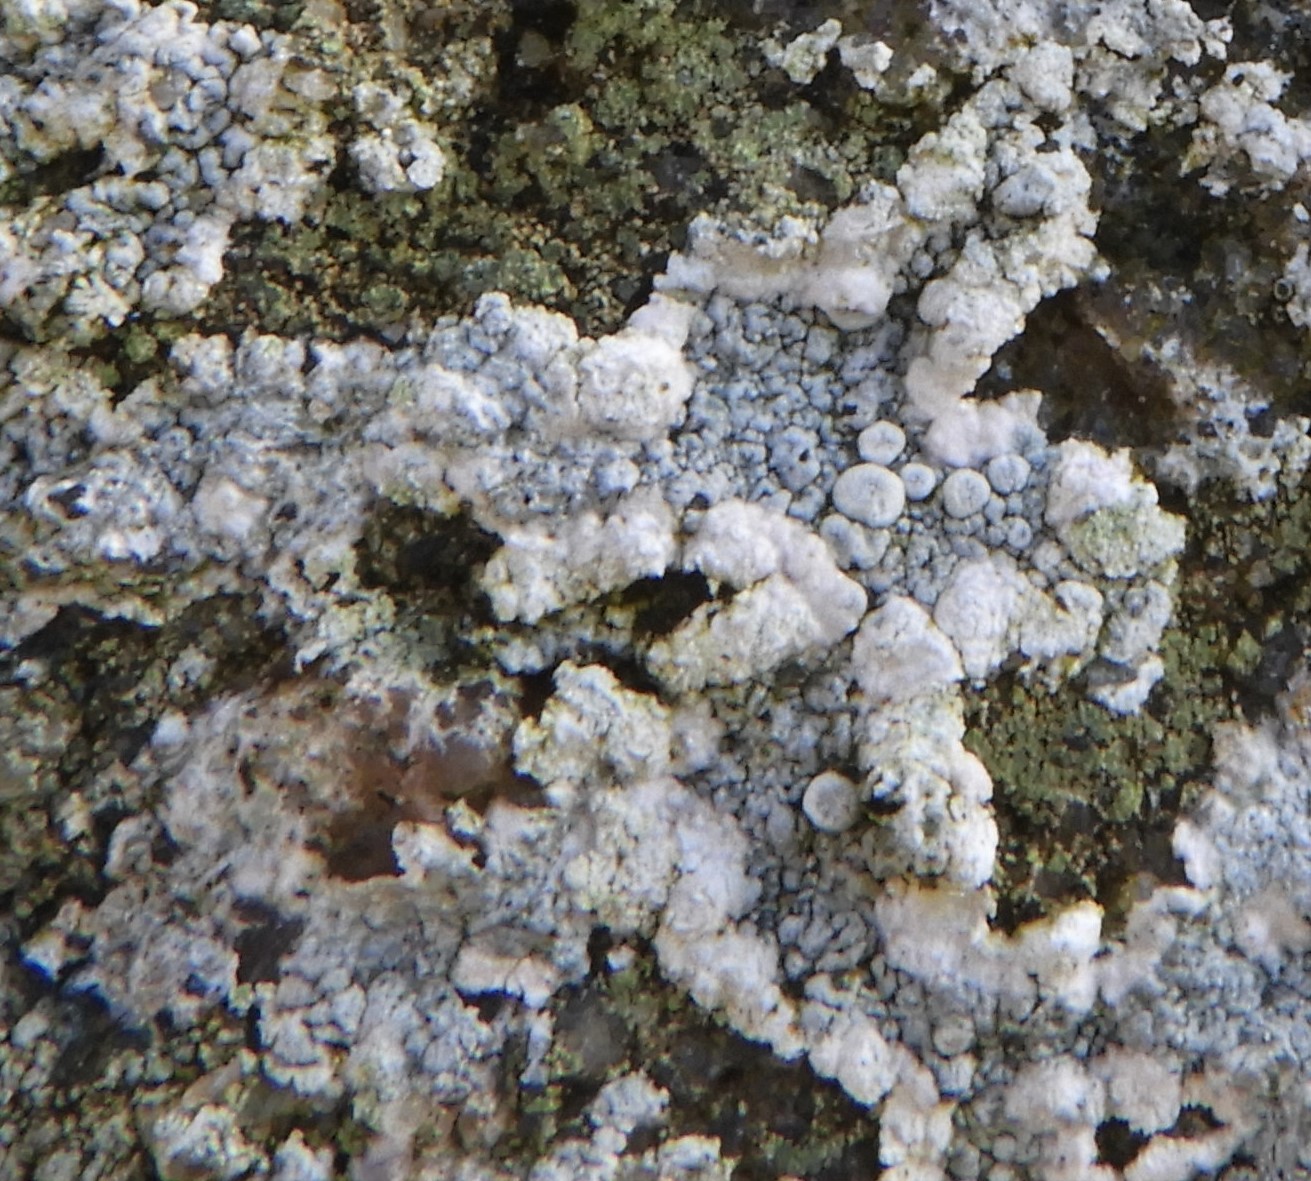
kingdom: Fungi
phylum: Ascomycota
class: Lecanoromycetes
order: Pertusariales
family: Ochrolechiaceae
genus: Ochrolechia
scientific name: Ochrolechia parella
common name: almindelig blegskivelav
